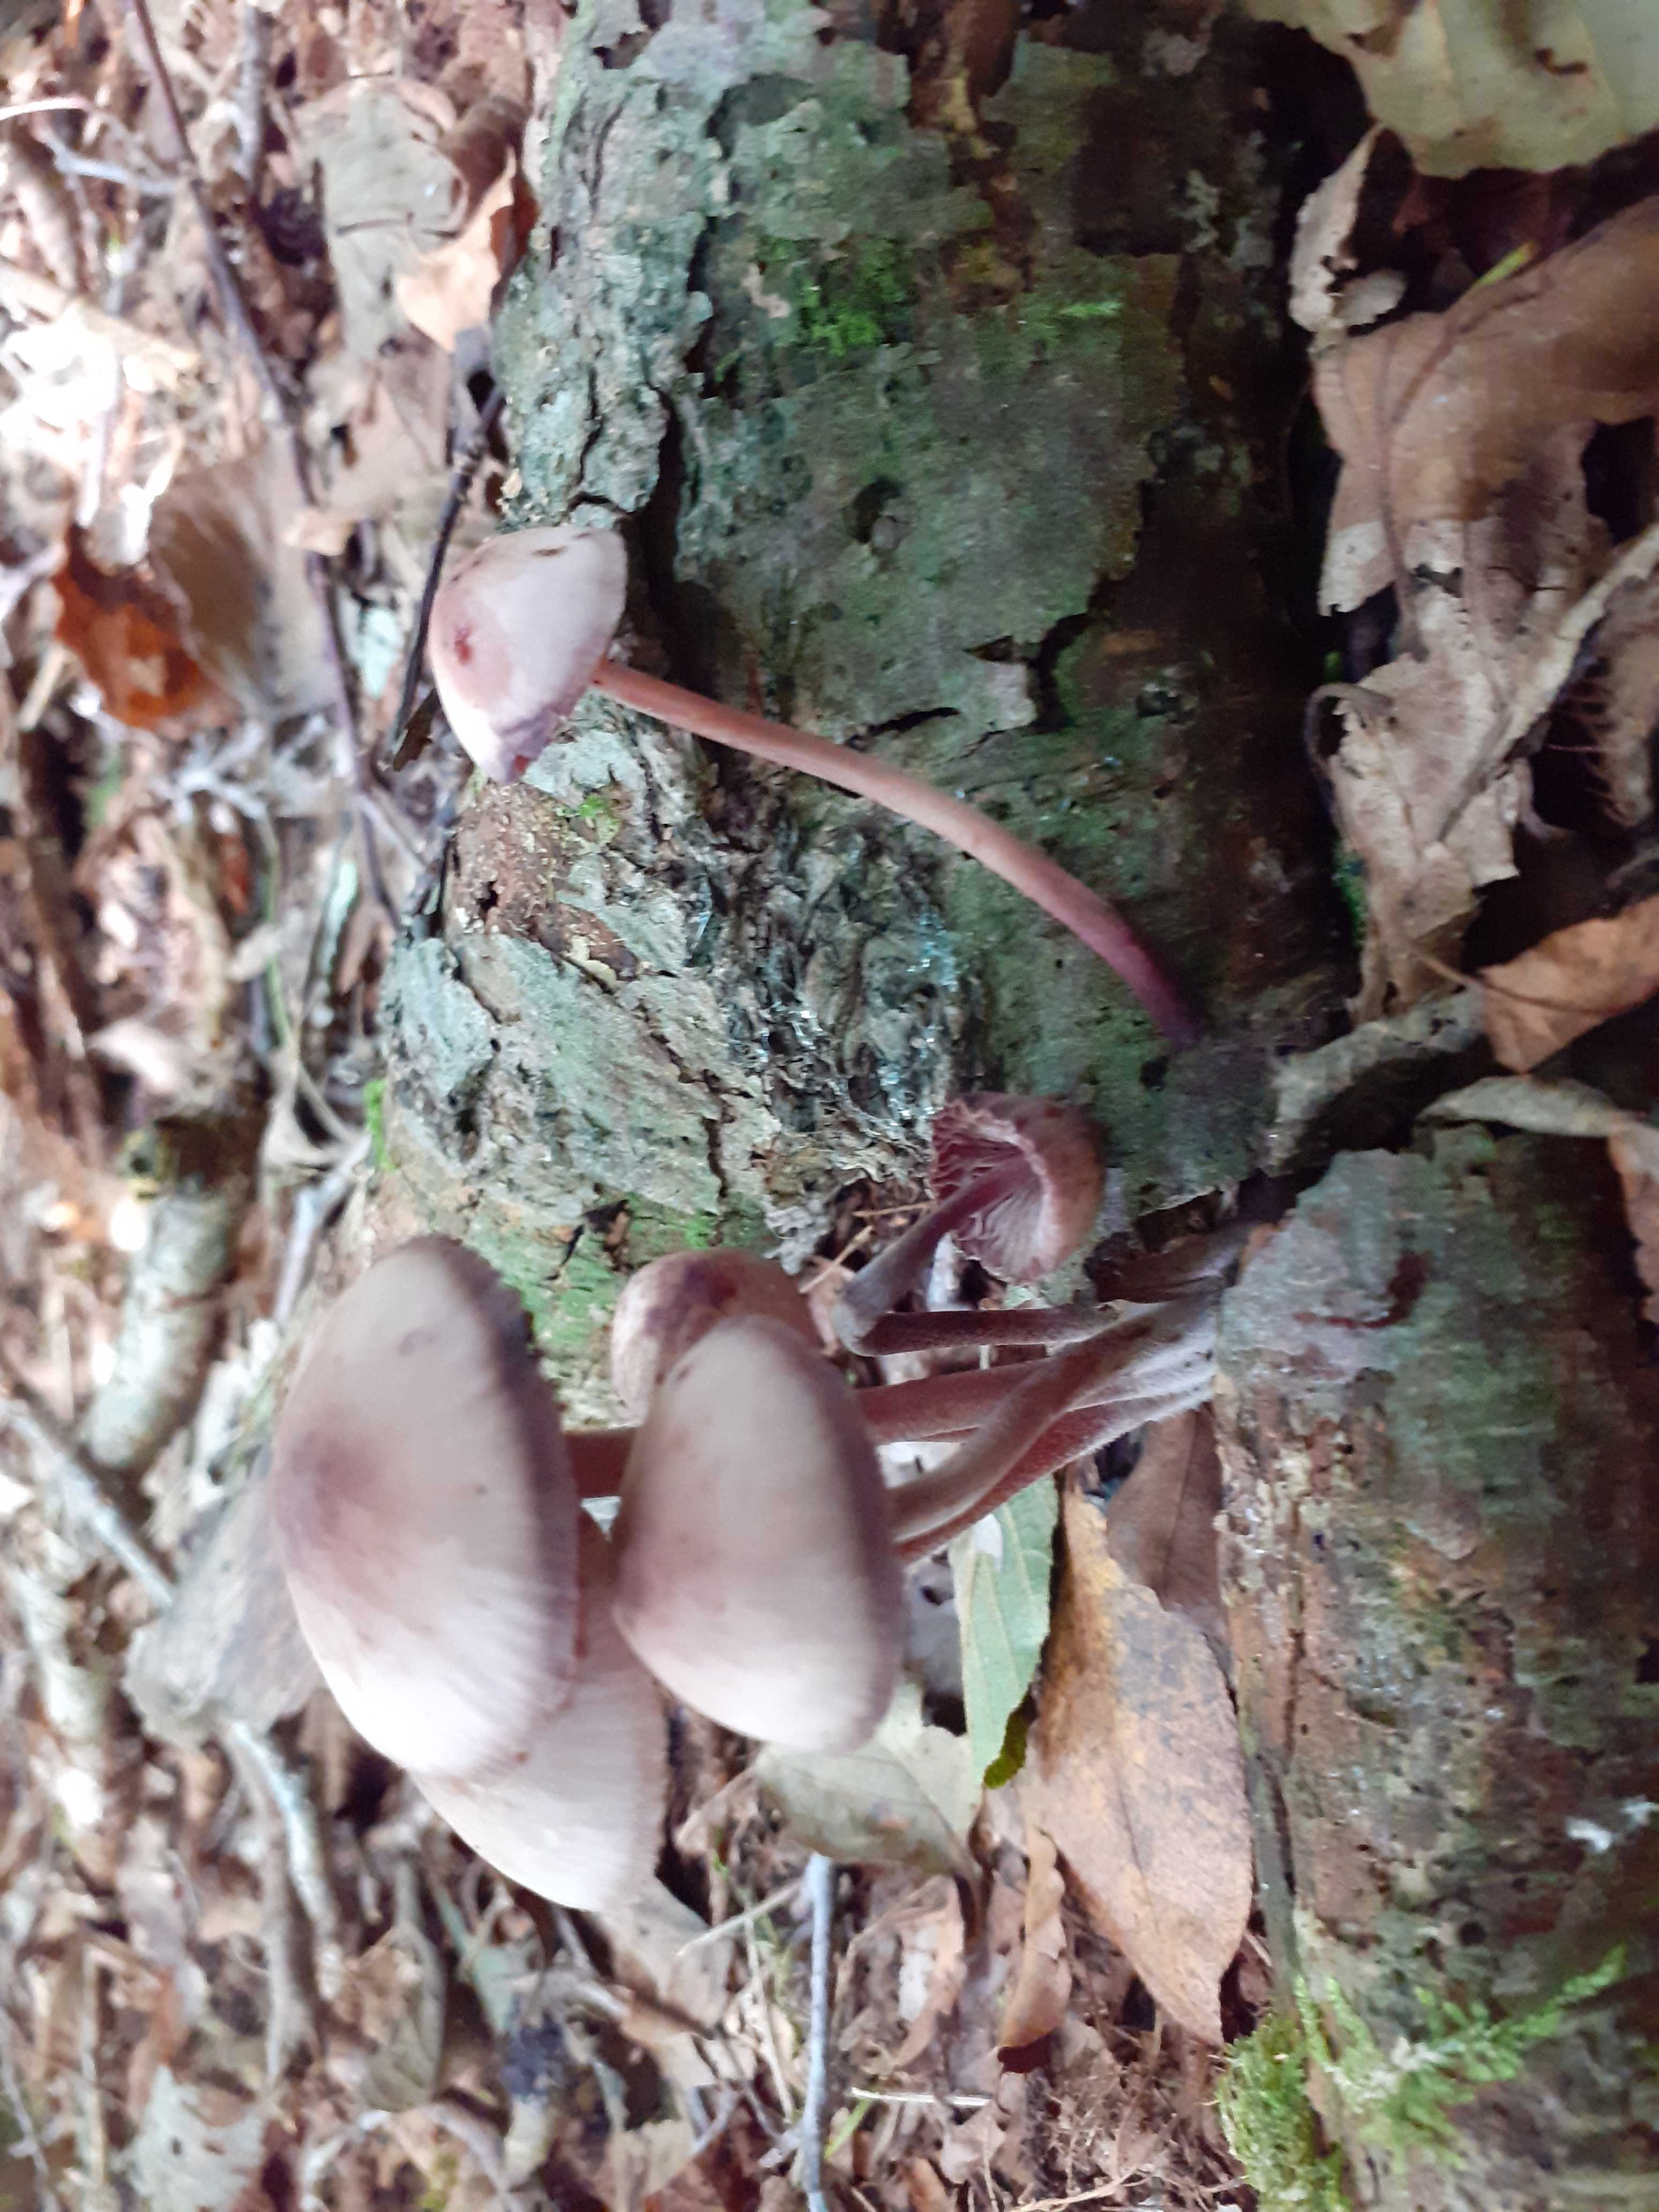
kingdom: Fungi
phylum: Basidiomycota
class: Agaricomycetes
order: Agaricales
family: Mycenaceae
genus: Mycena
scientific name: Mycena haematopus
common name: blødende huesvamp
